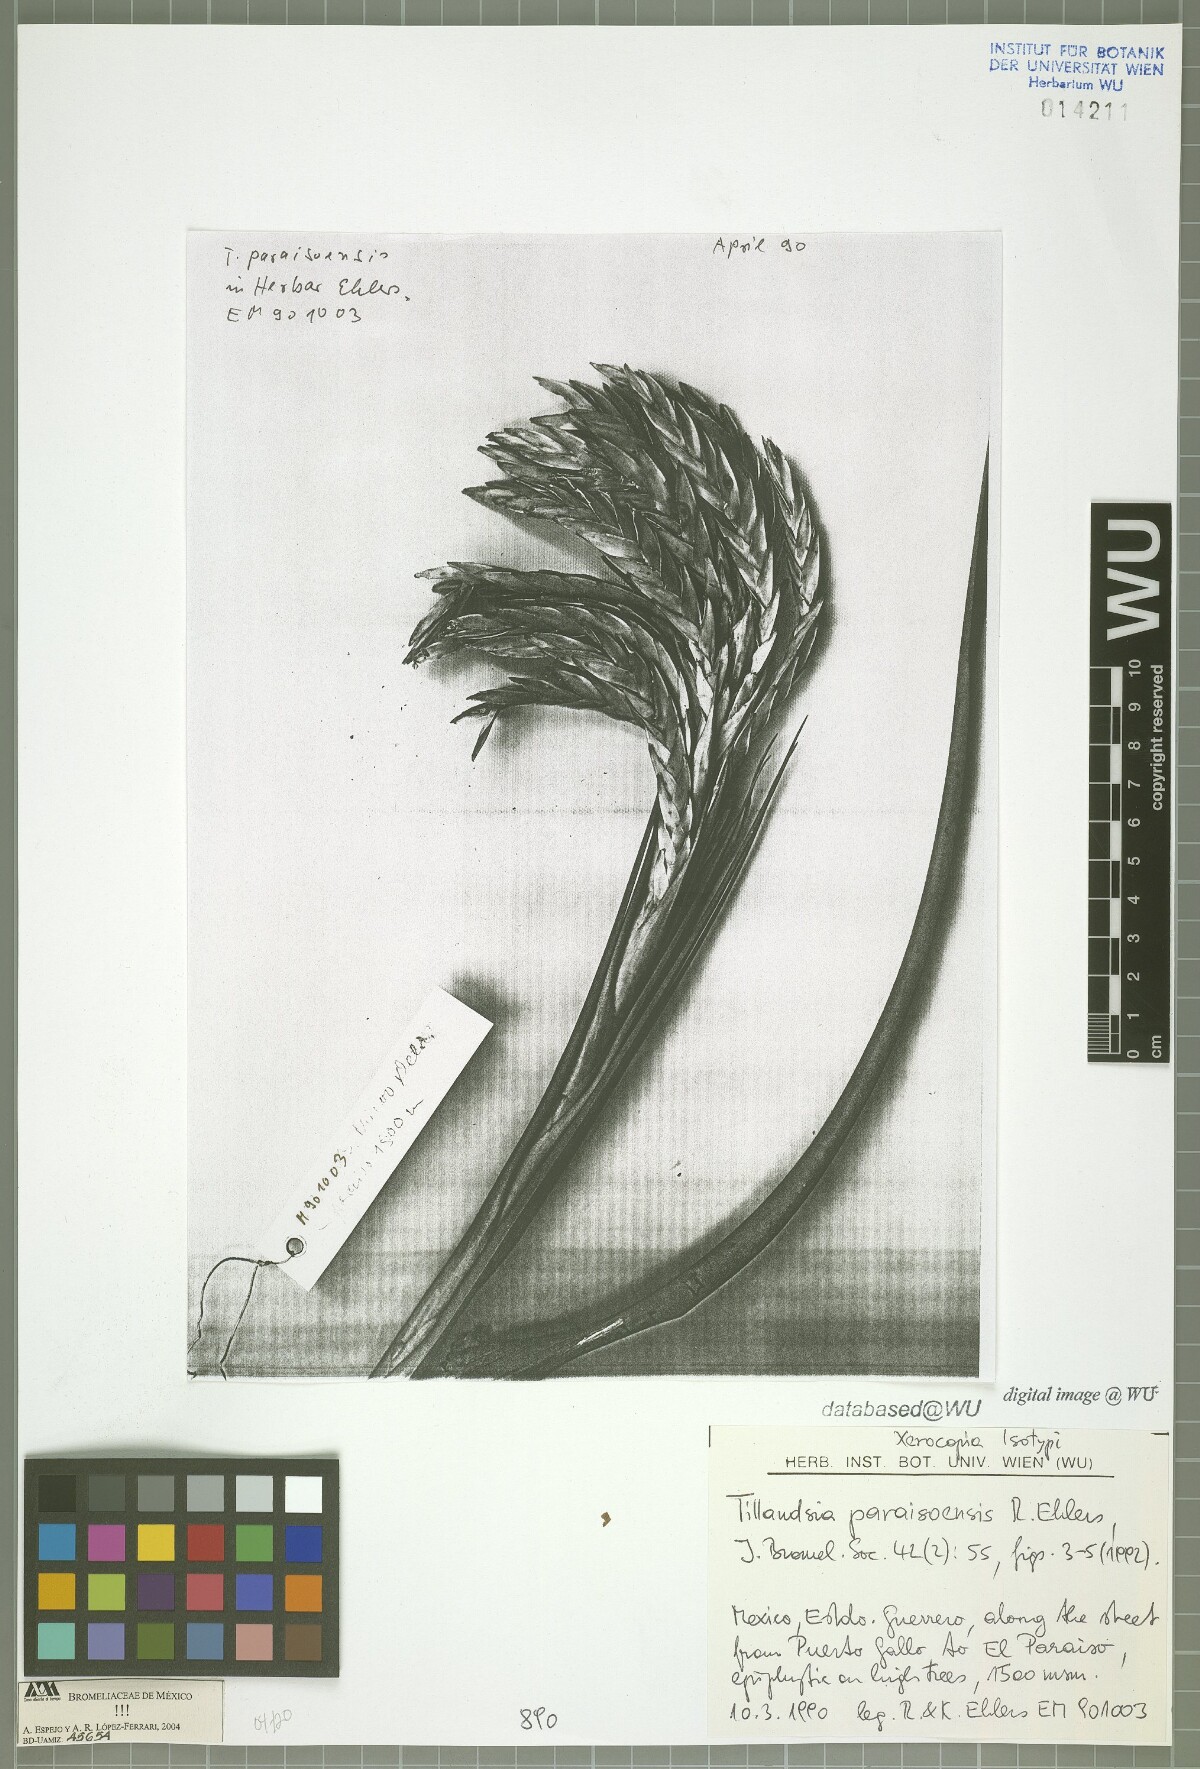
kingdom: Plantae
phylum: Tracheophyta
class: Liliopsida
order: Poales
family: Bromeliaceae
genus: Tillandsia
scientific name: Tillandsia paraisoensis
